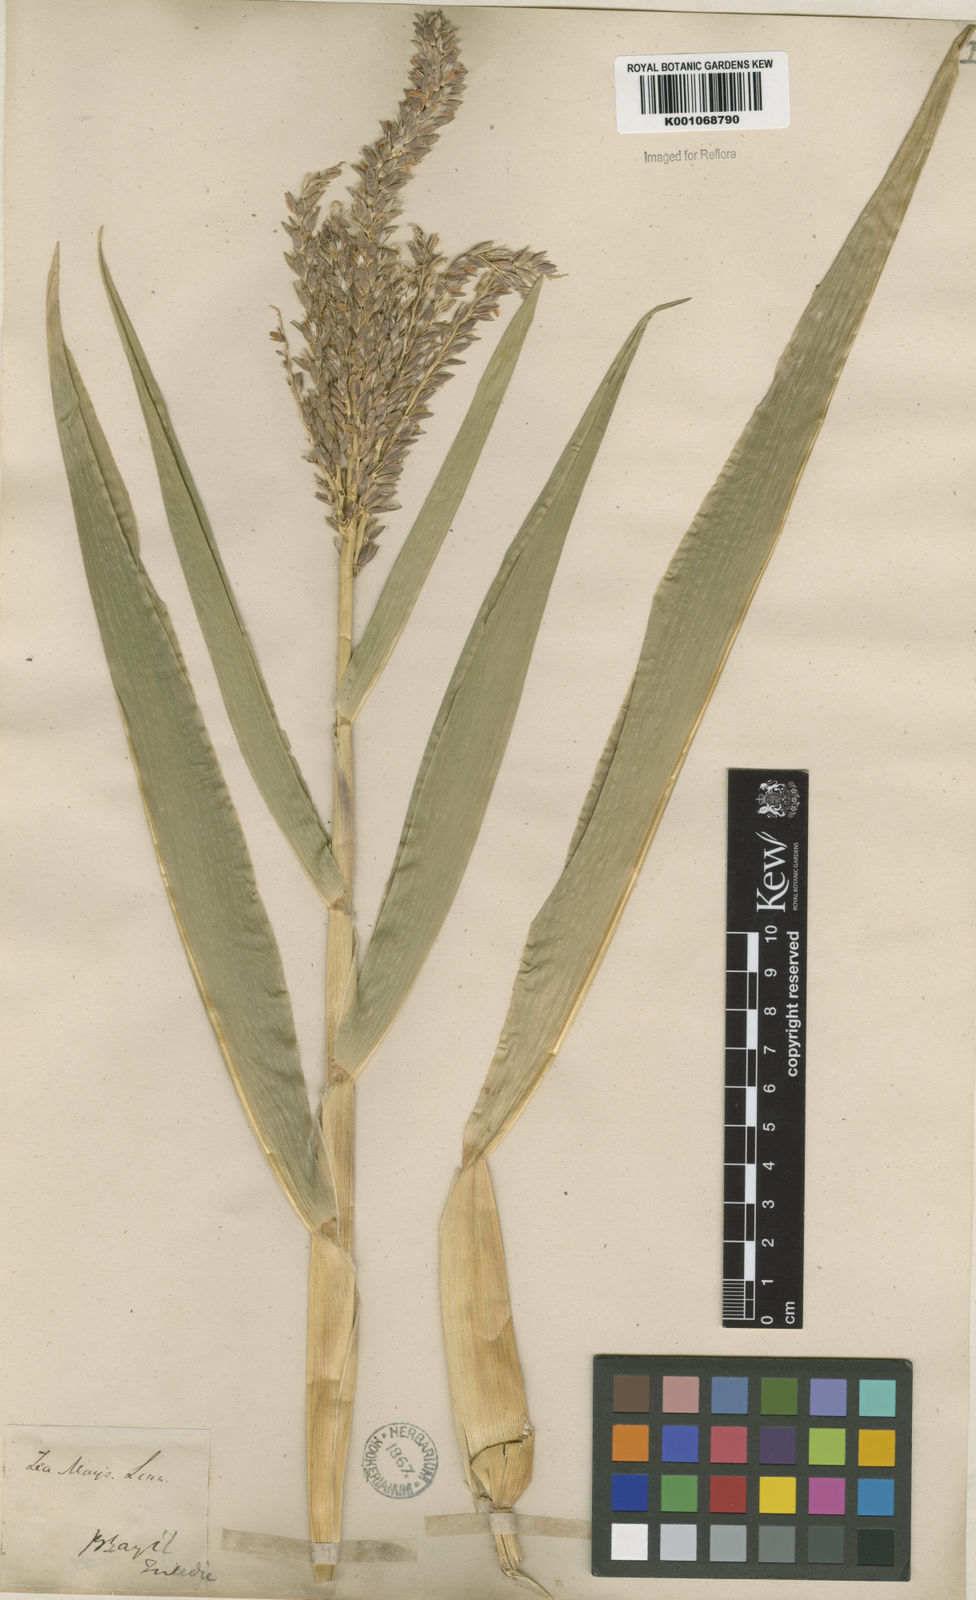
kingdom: Plantae
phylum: Tracheophyta
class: Liliopsida
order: Asparagales
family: Orchidaceae
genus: Coelogyne
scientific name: Coelogyne triuncialis
